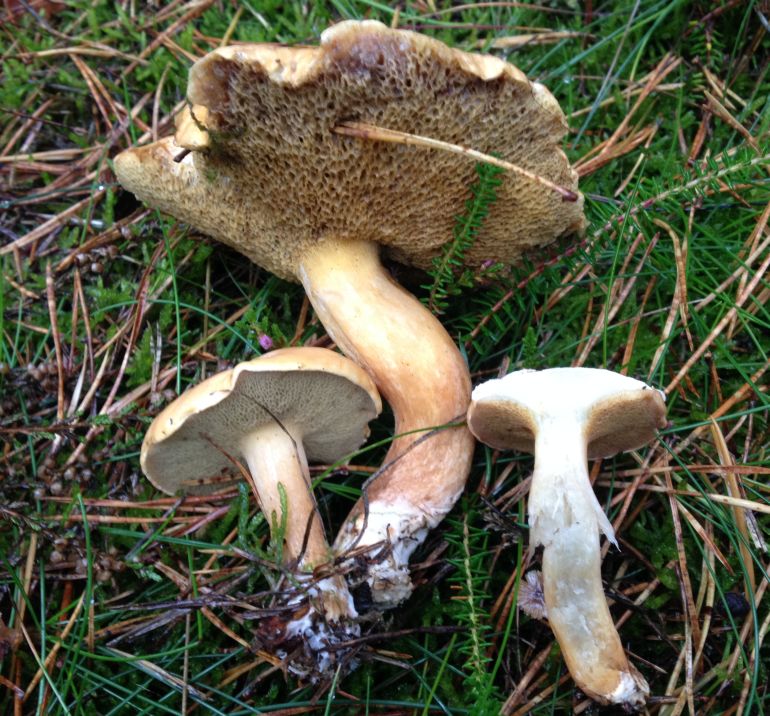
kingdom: Fungi
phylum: Basidiomycota
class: Agaricomycetes
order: Boletales
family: Suillaceae
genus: Suillus
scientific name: Suillus bovinus
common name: grovporet slimrørhat
